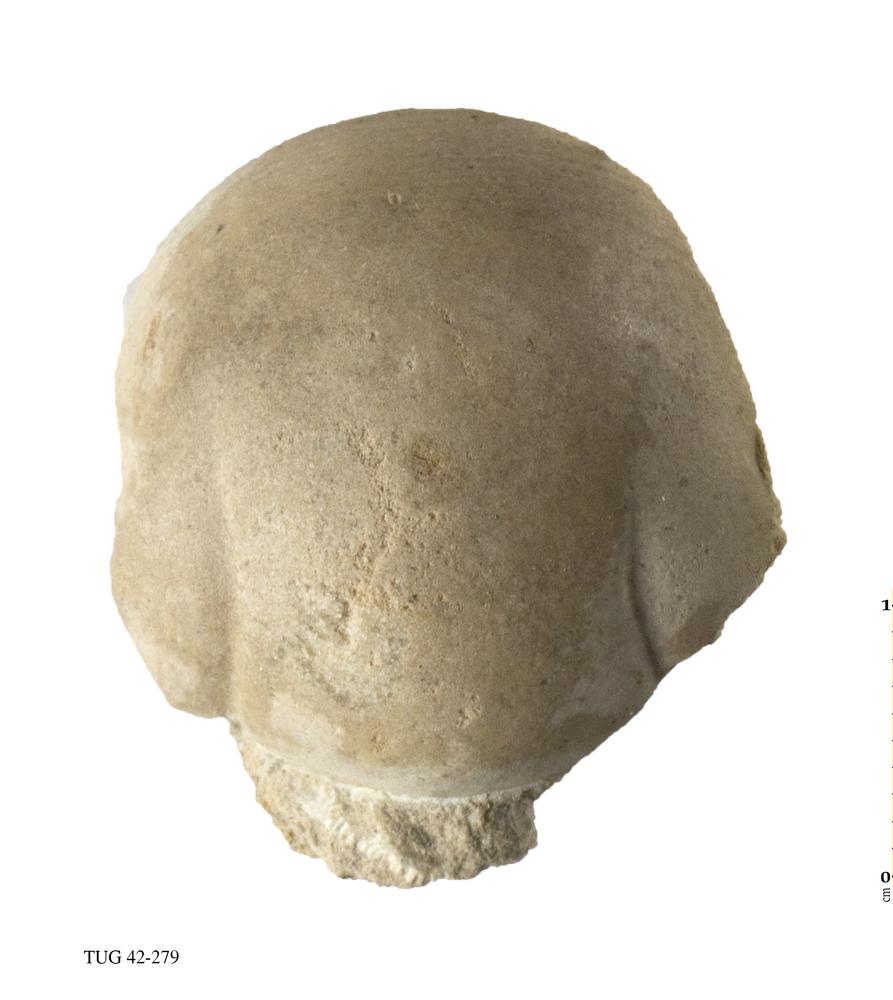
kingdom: Animalia
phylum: Arthropoda
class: Trilobita
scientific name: Trilobita
